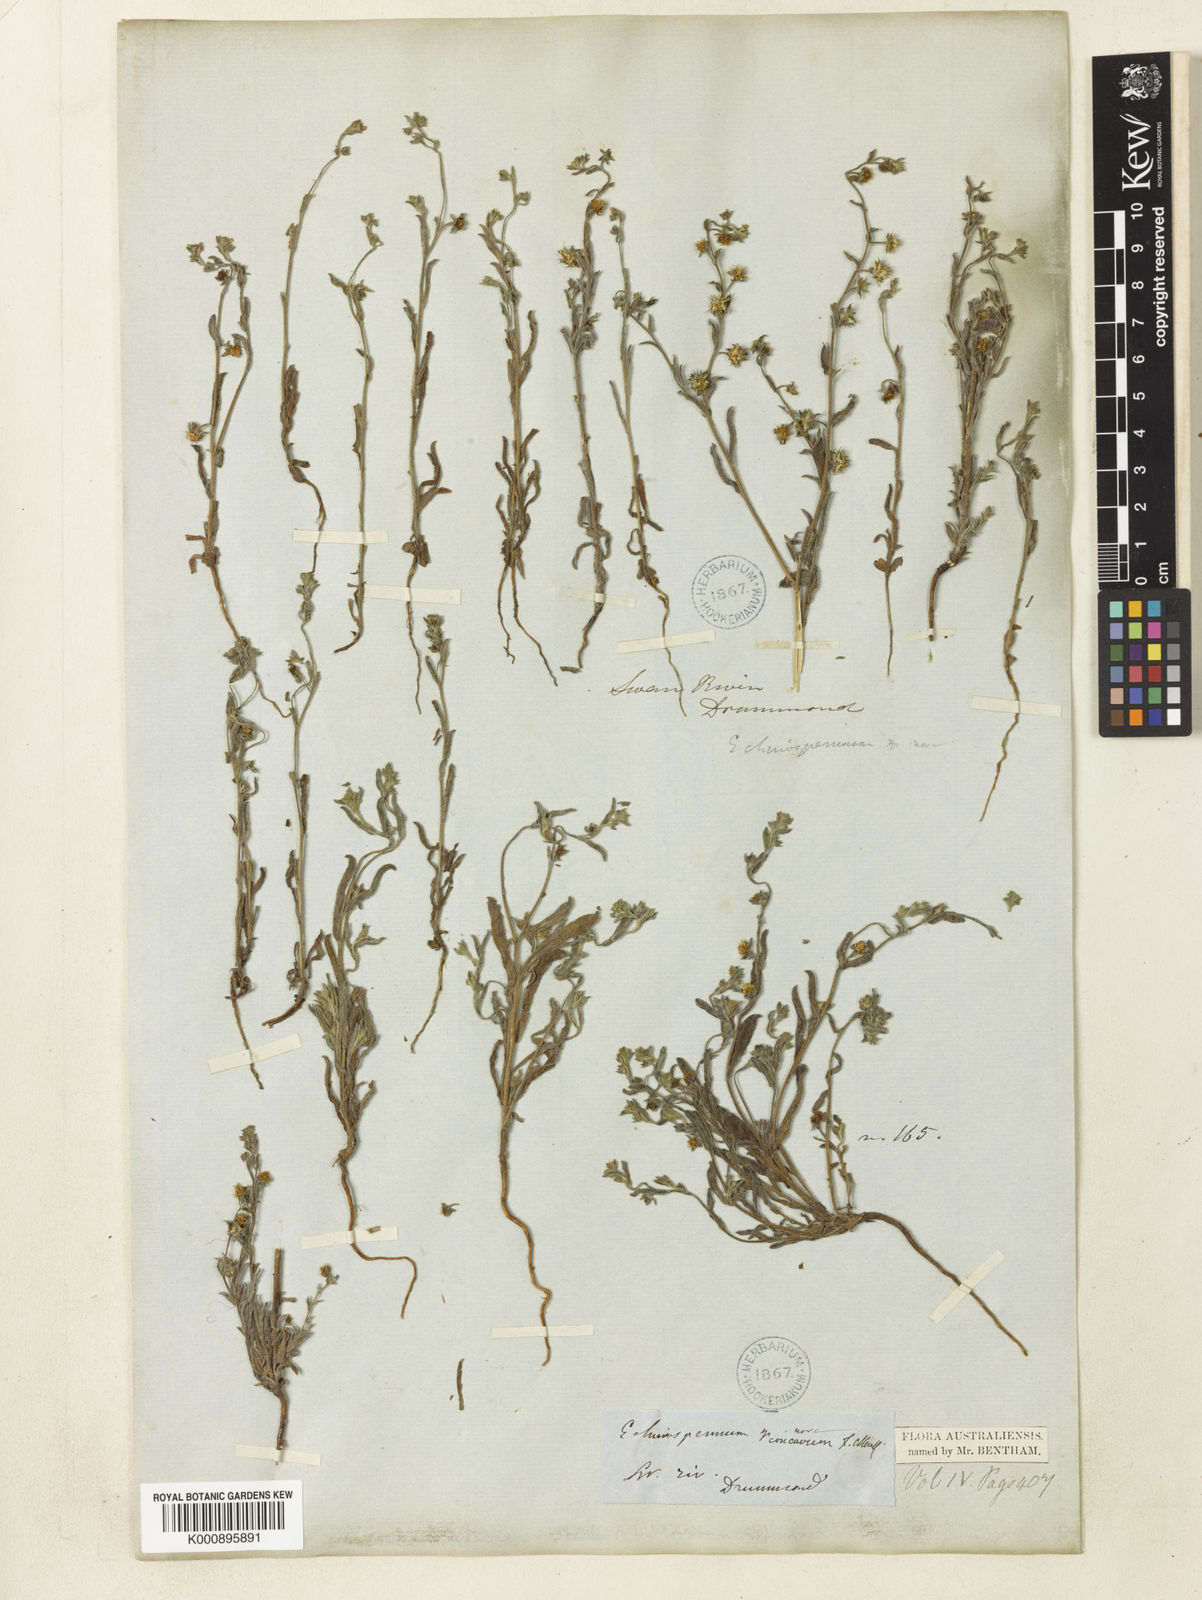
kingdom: Plantae
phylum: Tracheophyta
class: Magnoliopsida
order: Boraginales
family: Boraginaceae
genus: Omphalolappula
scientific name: Omphalolappula concava
